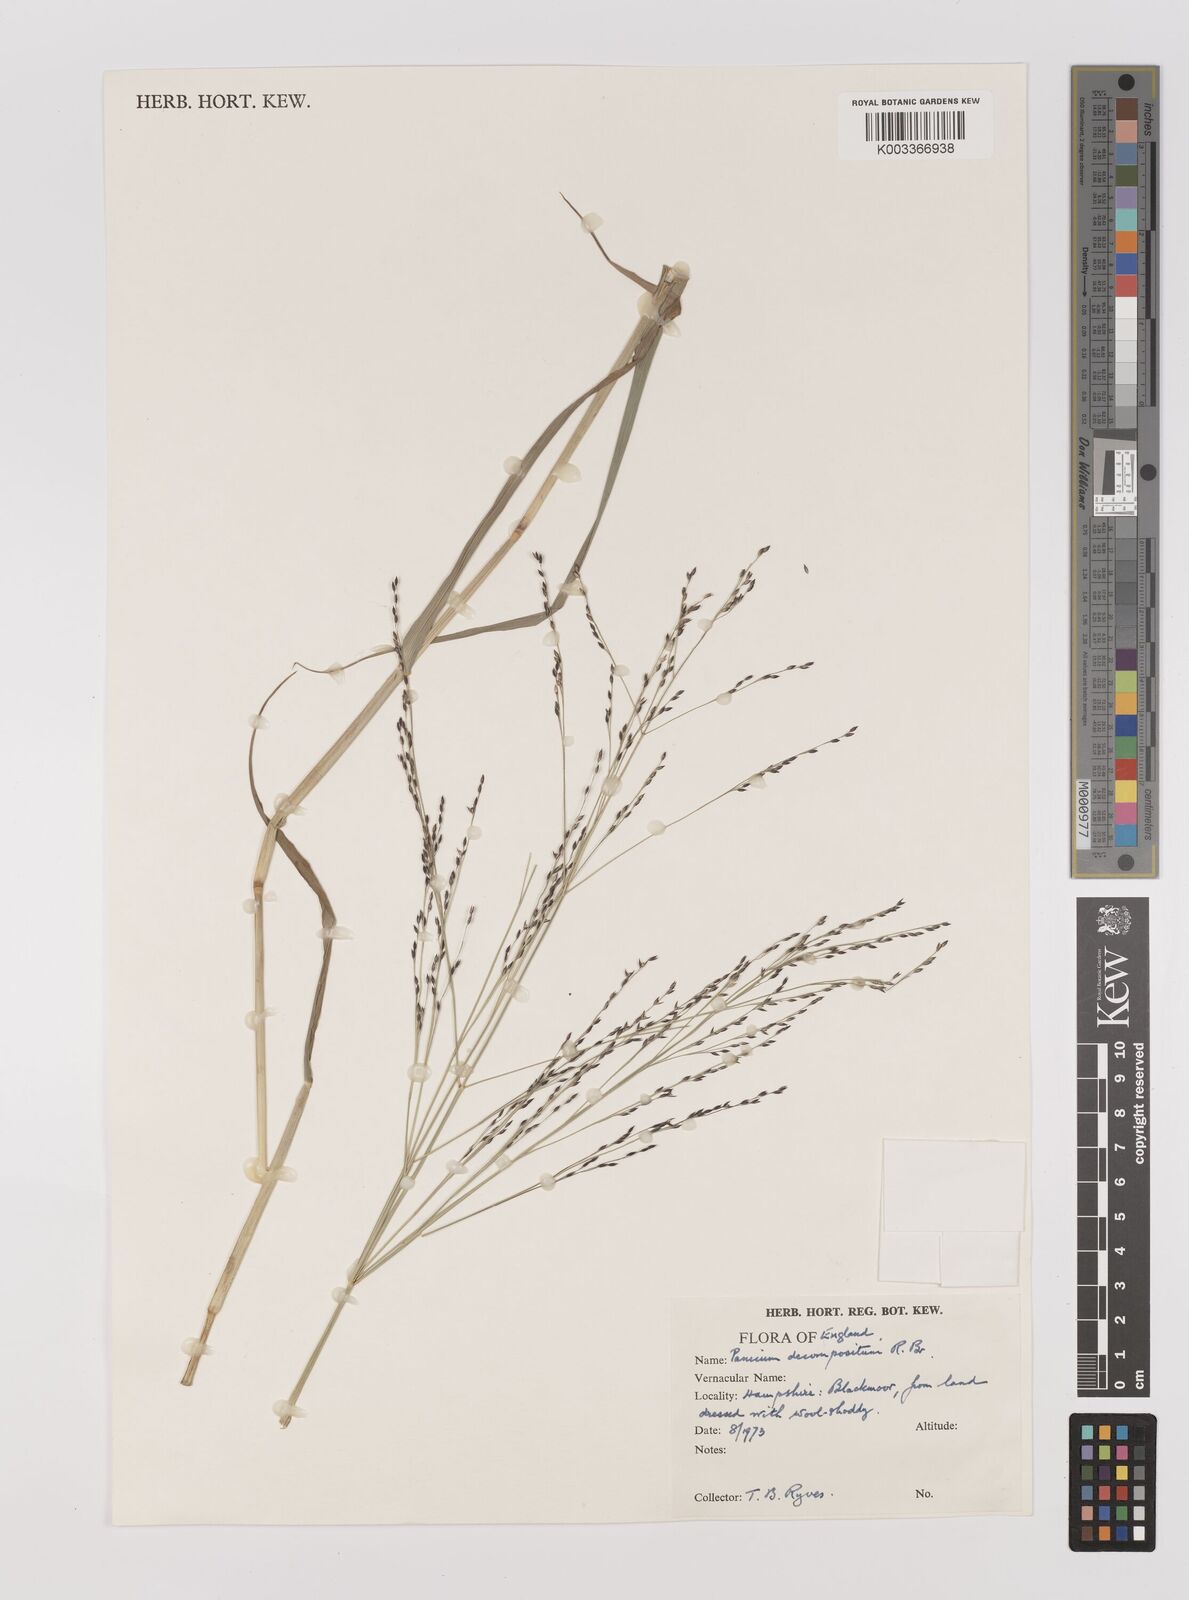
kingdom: Plantae
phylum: Tracheophyta
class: Liliopsida
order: Poales
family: Poaceae
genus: Panicum
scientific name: Panicum decompositum
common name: Australian millet
